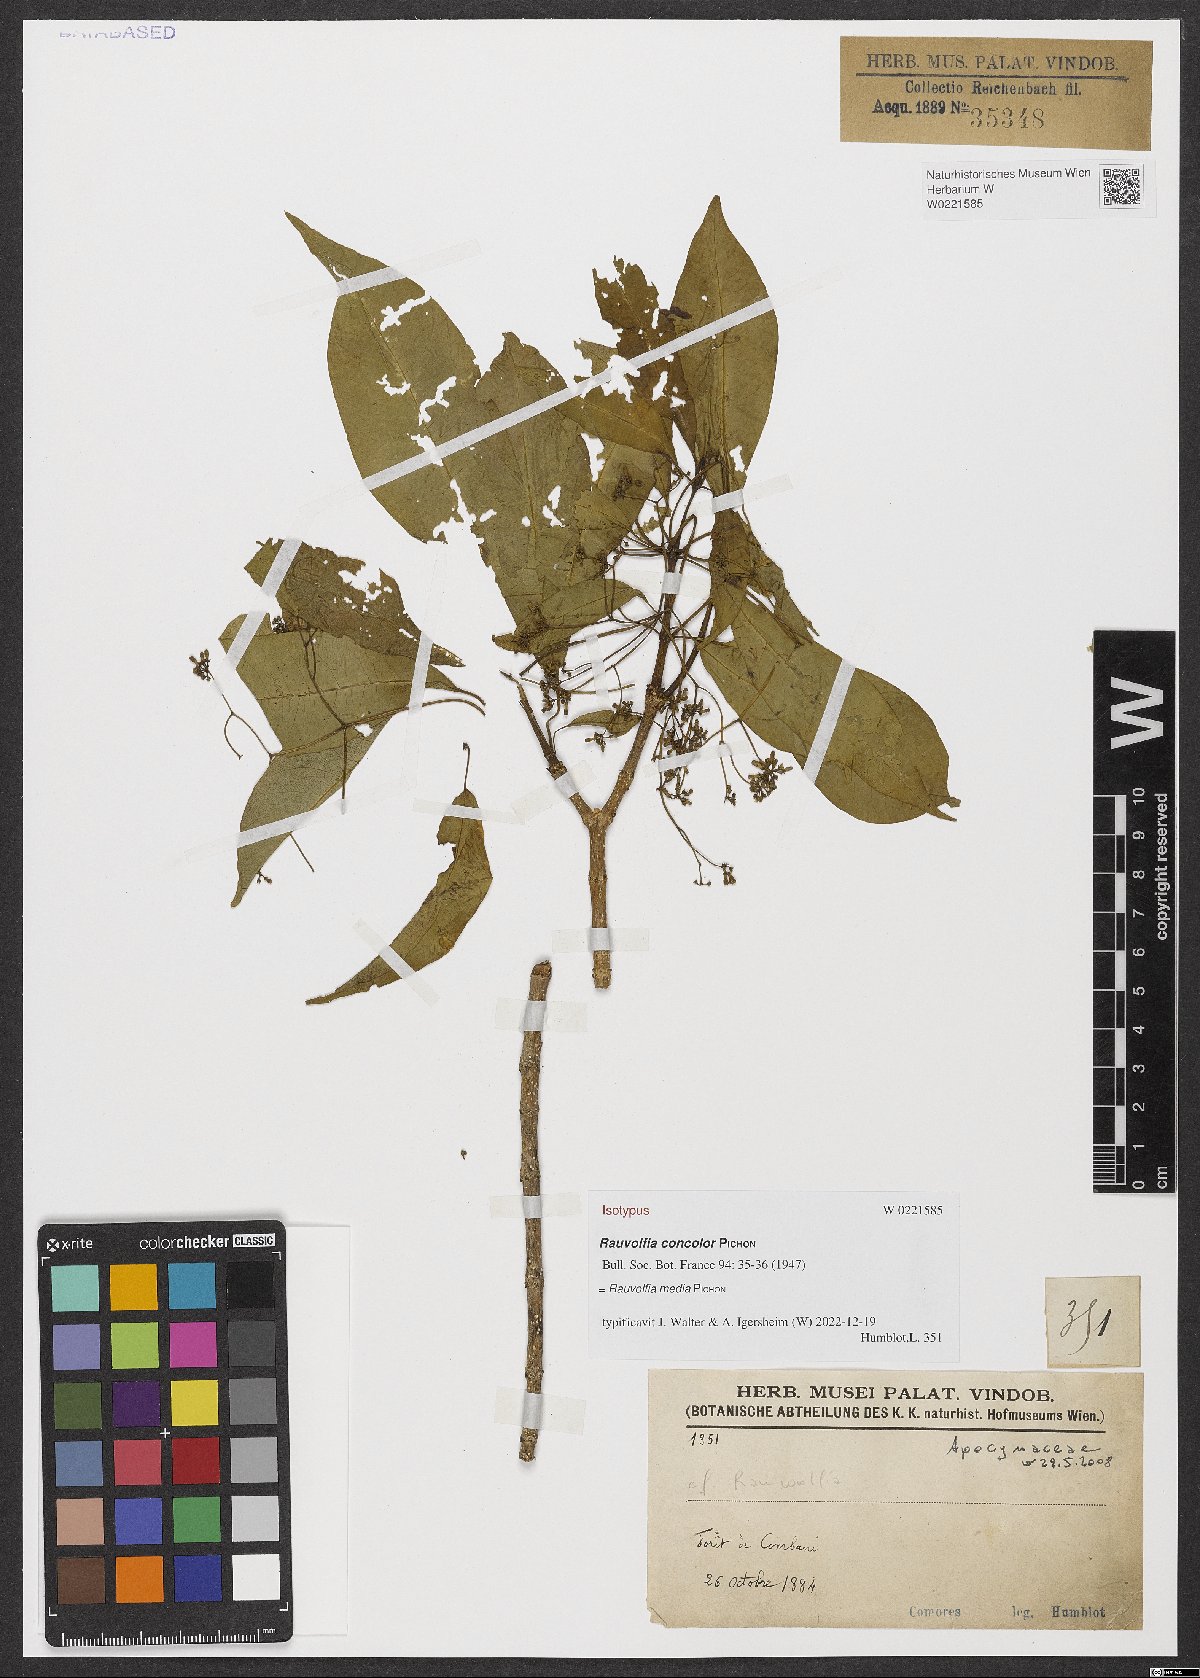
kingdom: Plantae
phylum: Tracheophyta
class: Magnoliopsida
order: Gentianales
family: Apocynaceae
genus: Rauvolfia
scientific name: Rauvolfia media
